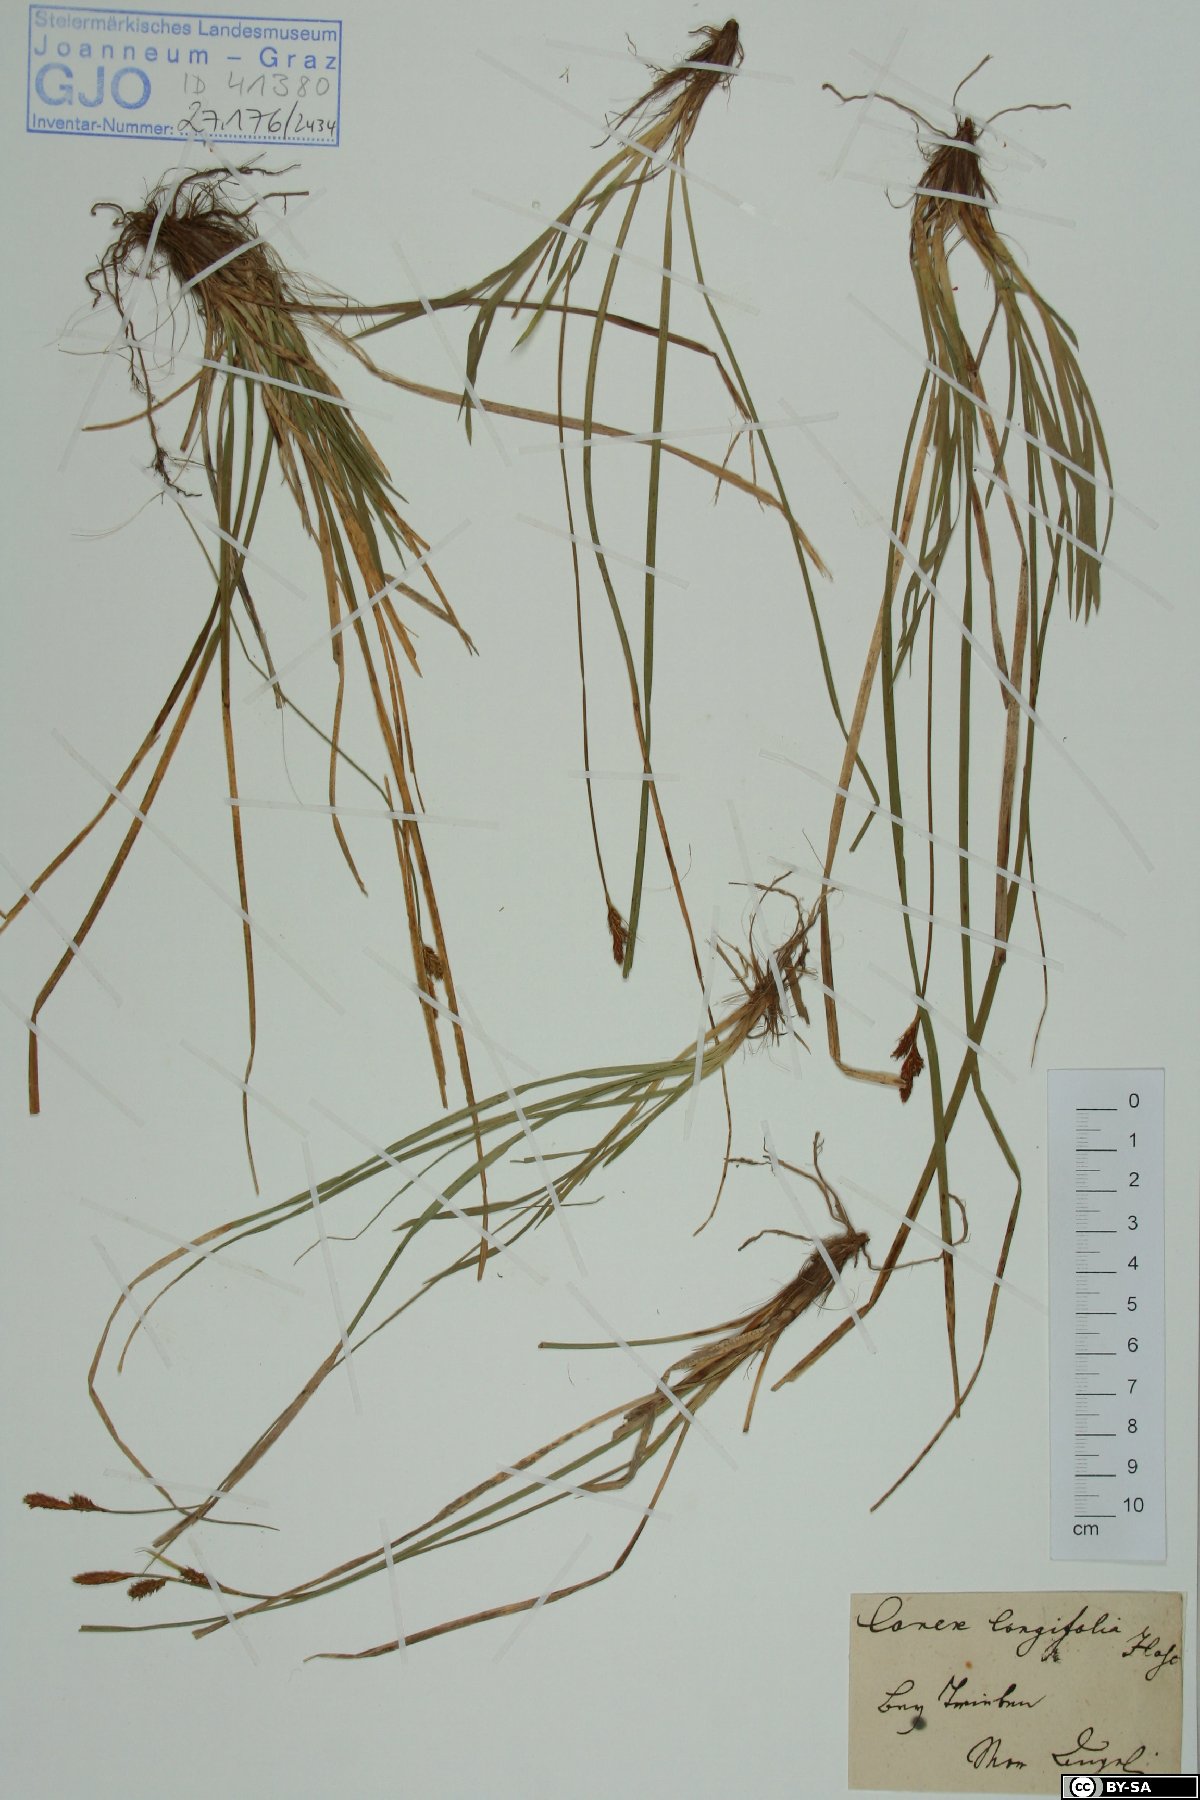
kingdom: Plantae
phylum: Tracheophyta
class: Liliopsida
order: Poales
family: Cyperaceae
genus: Carex
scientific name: Carex umbrosa
